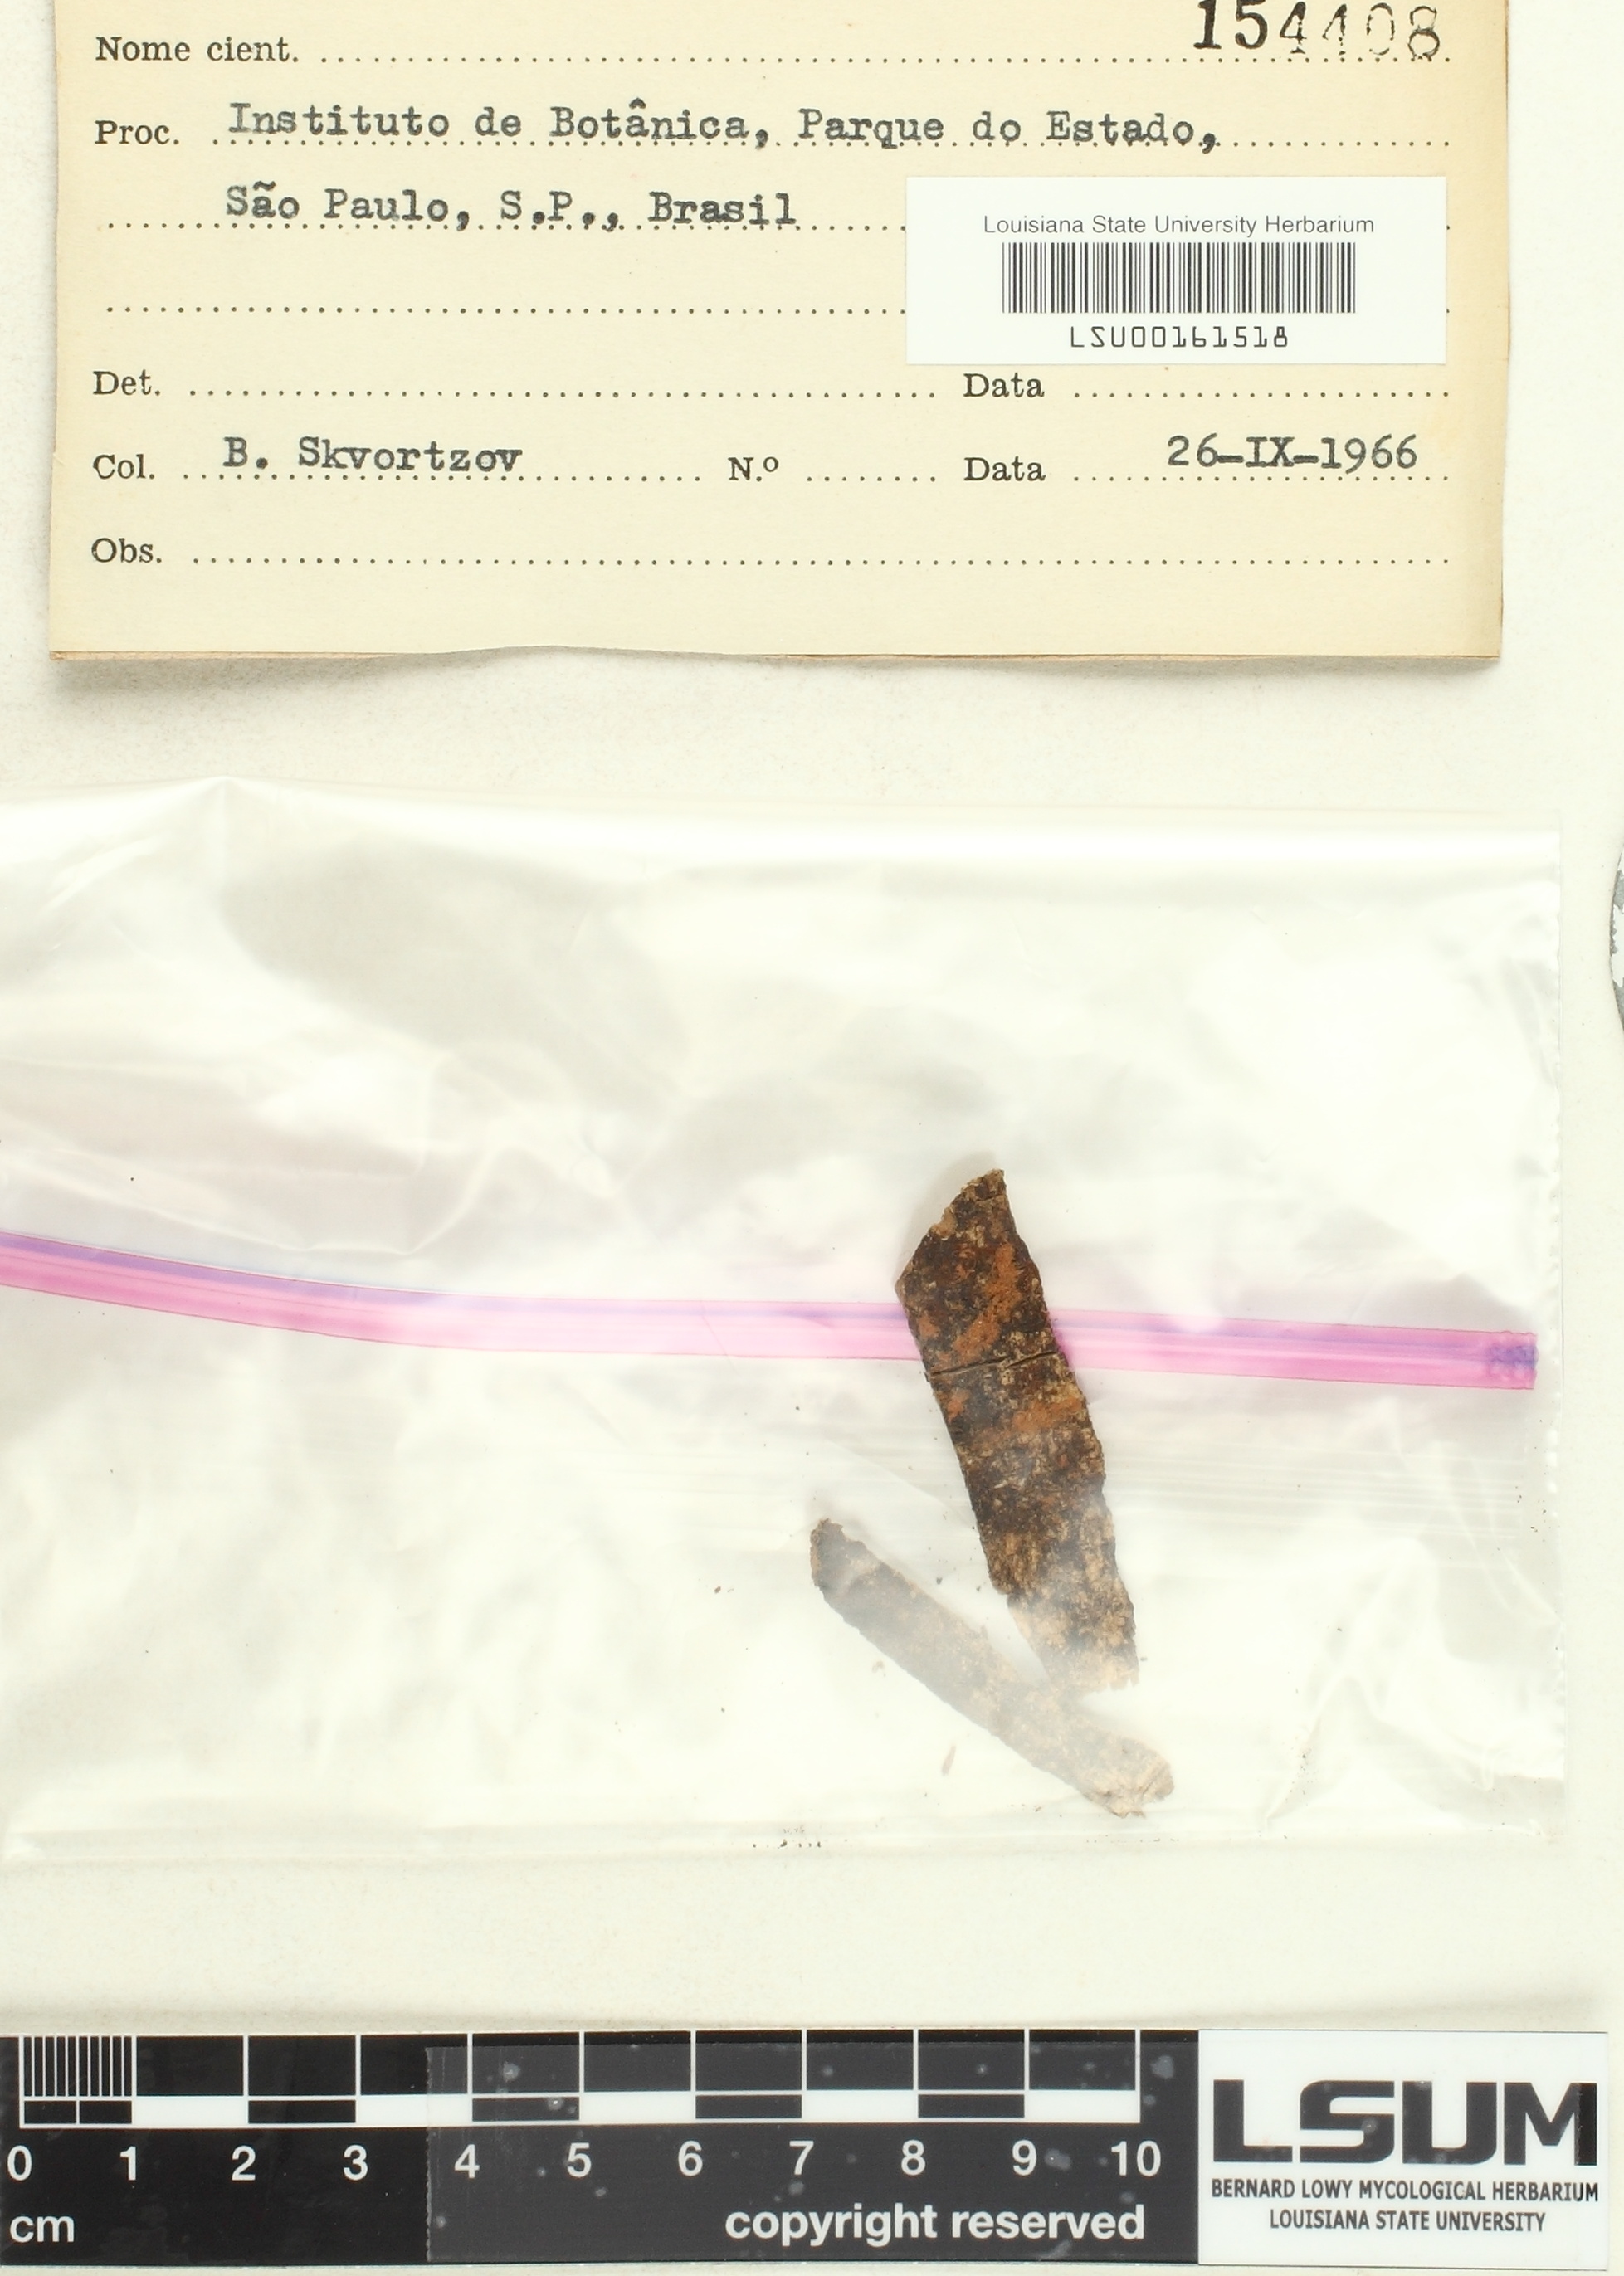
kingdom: Fungi
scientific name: Fungi
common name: Fungi
